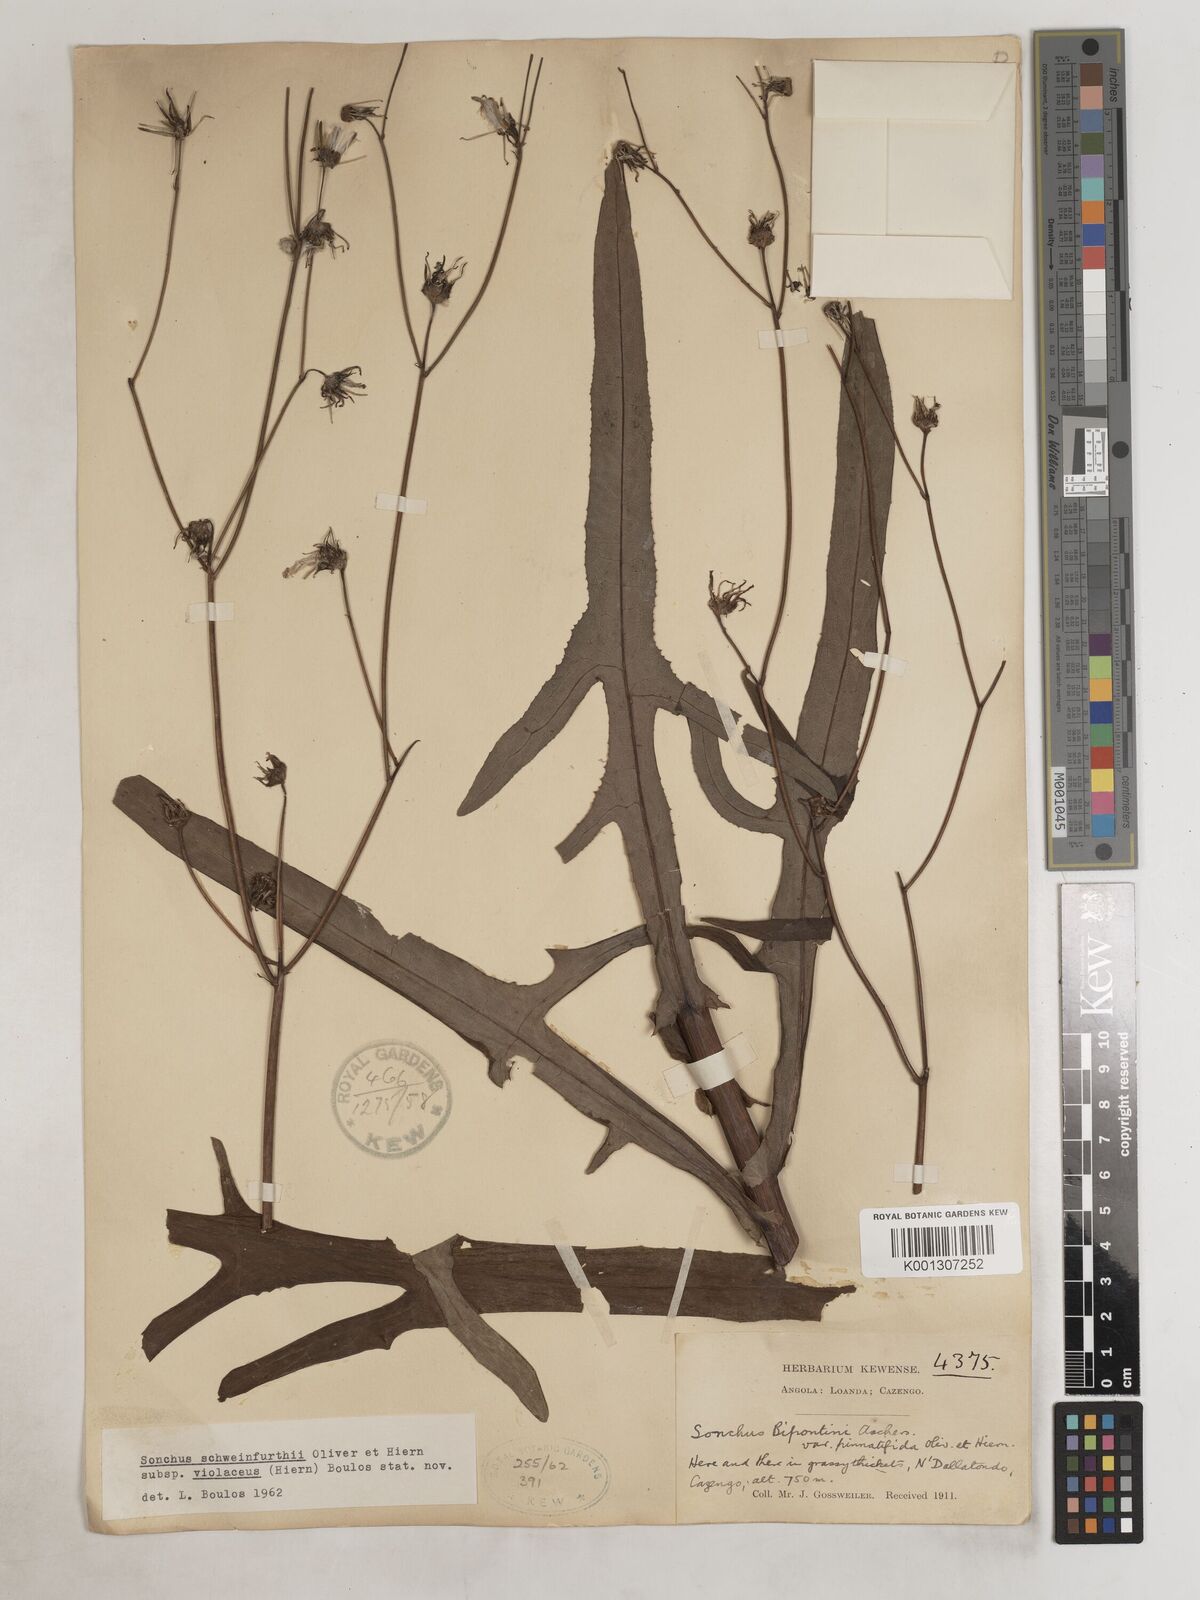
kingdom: Plantae
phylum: Tracheophyta
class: Magnoliopsida
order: Asterales
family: Asteraceae
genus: Sonchus
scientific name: Sonchus schweinfurthii
